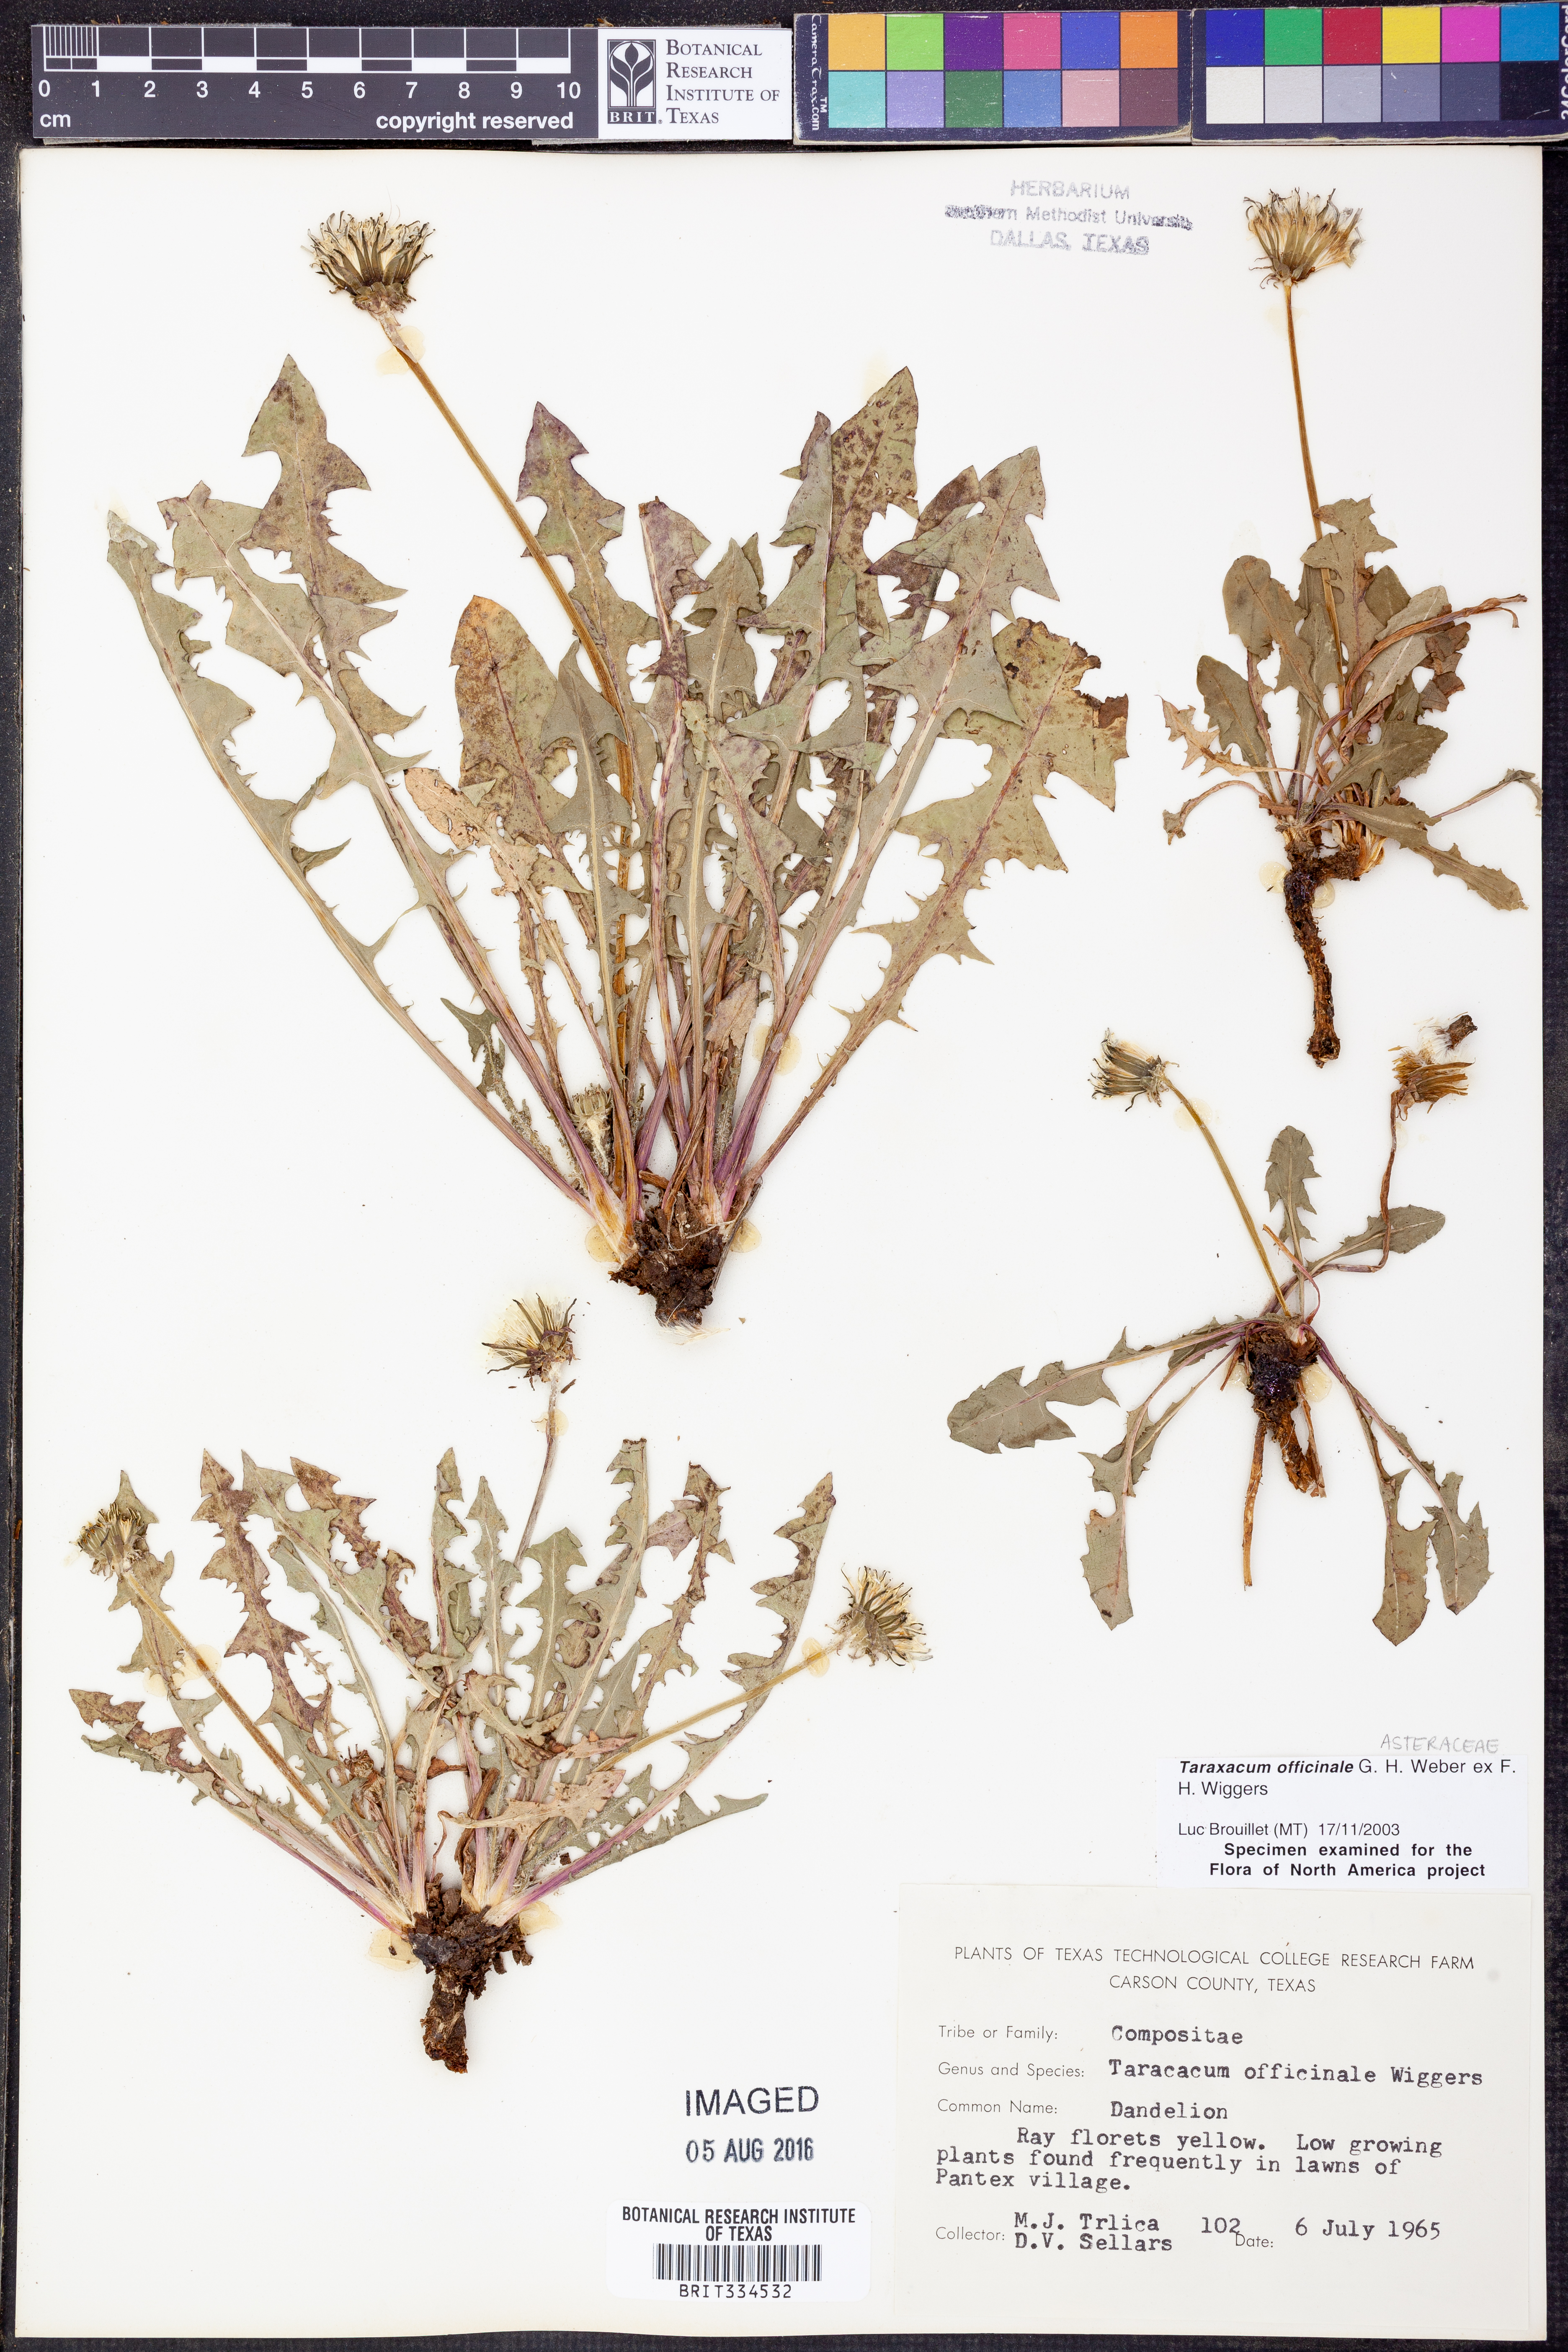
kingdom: Plantae
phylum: Tracheophyta
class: Magnoliopsida
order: Asterales
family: Asteraceae
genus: Taraxacum
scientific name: Taraxacum officinale
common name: Common dandelion
